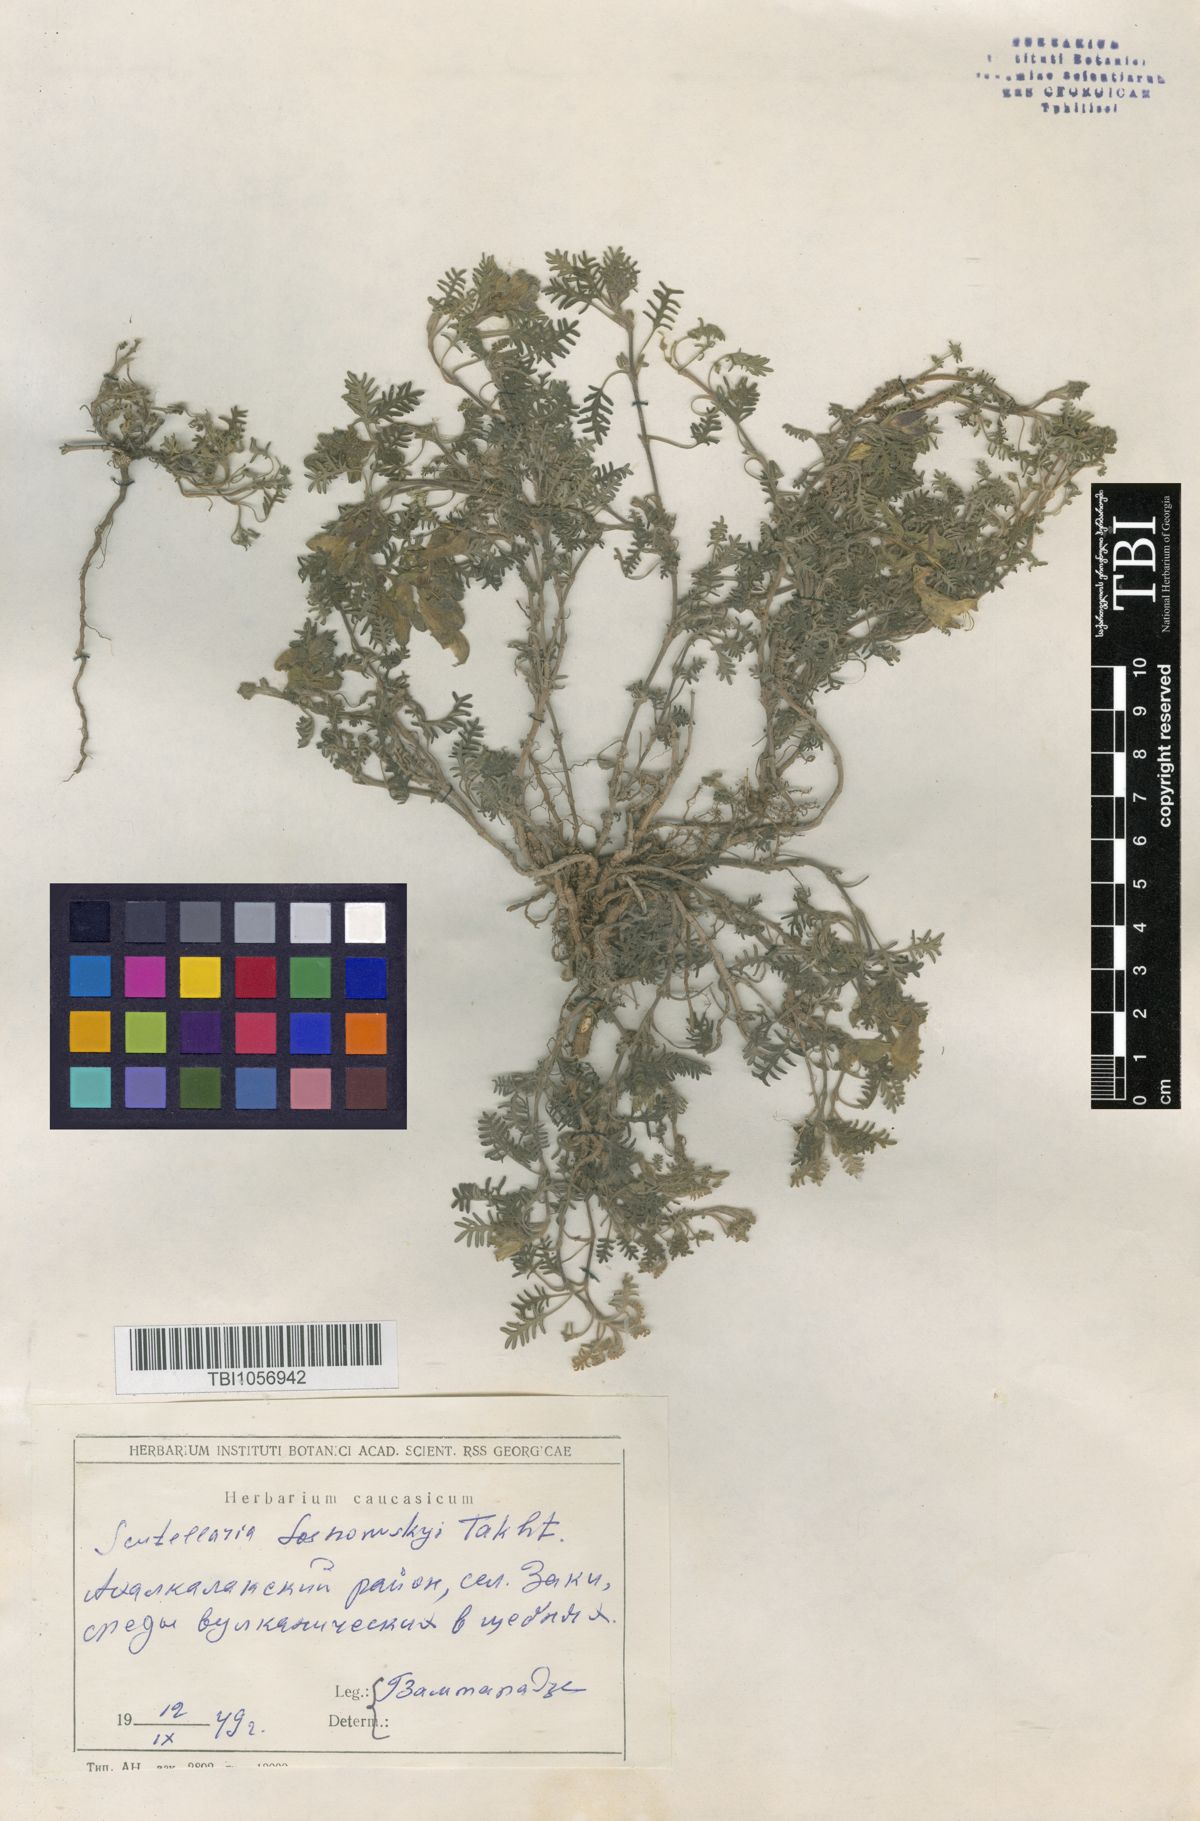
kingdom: Plantae
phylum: Tracheophyta
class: Magnoliopsida
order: Lamiales
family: Lamiaceae
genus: Scutellaria
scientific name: Scutellaria sosnowskyi
